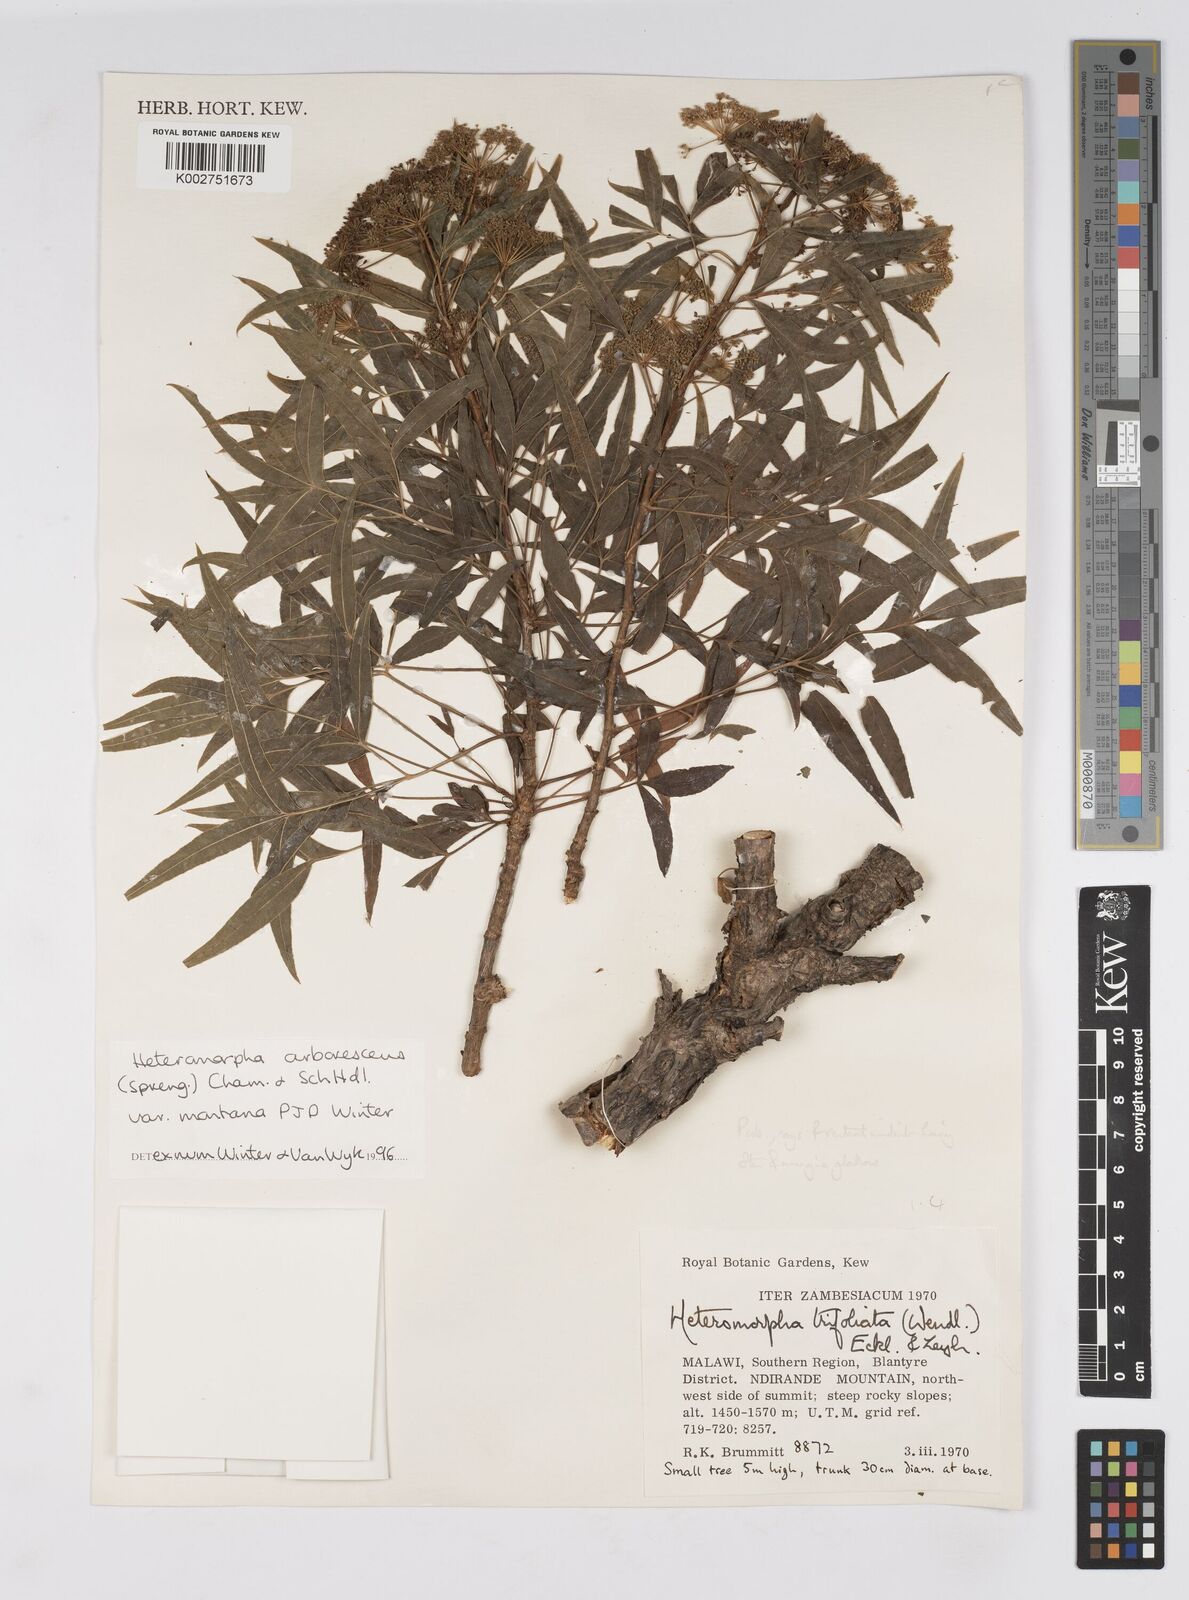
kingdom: Plantae
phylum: Tracheophyta
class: Magnoliopsida
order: Apiales
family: Apiaceae
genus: Heteromorpha
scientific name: Heteromorpha montana
